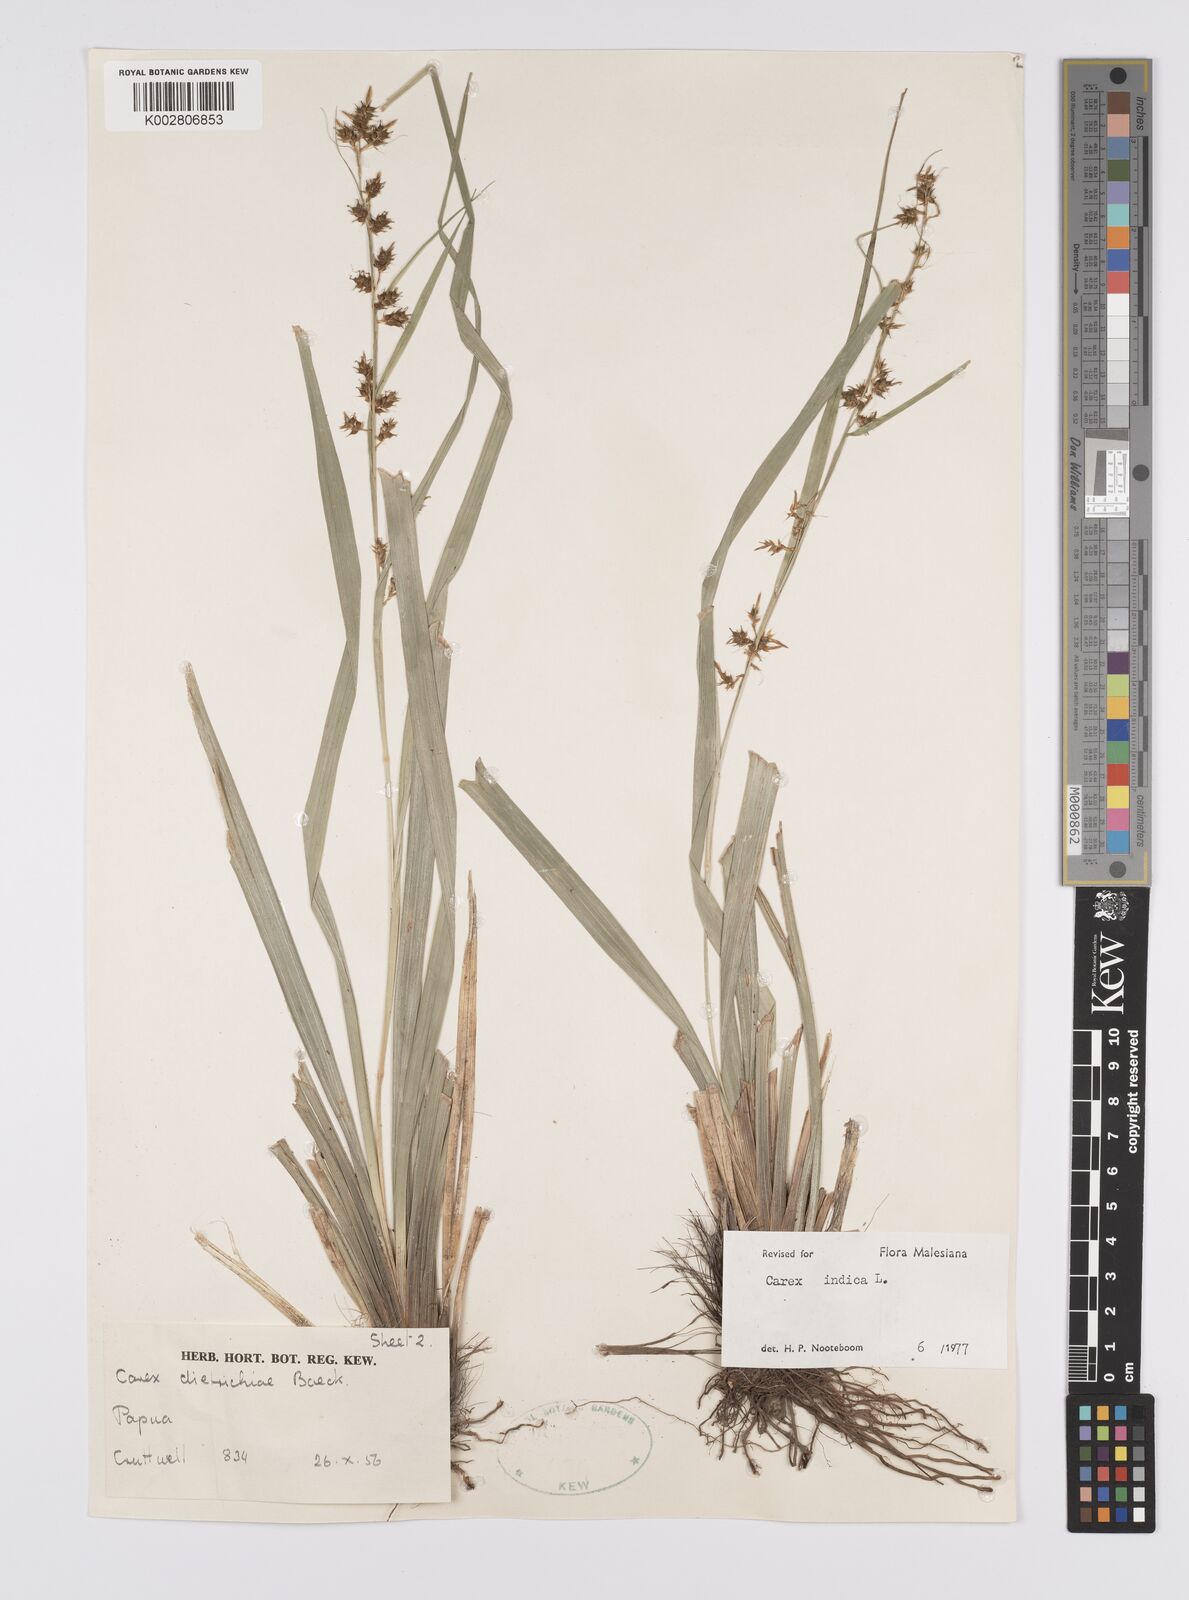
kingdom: Plantae
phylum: Tracheophyta
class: Liliopsida
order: Poales
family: Cyperaceae
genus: Carex
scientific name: Carex indica
